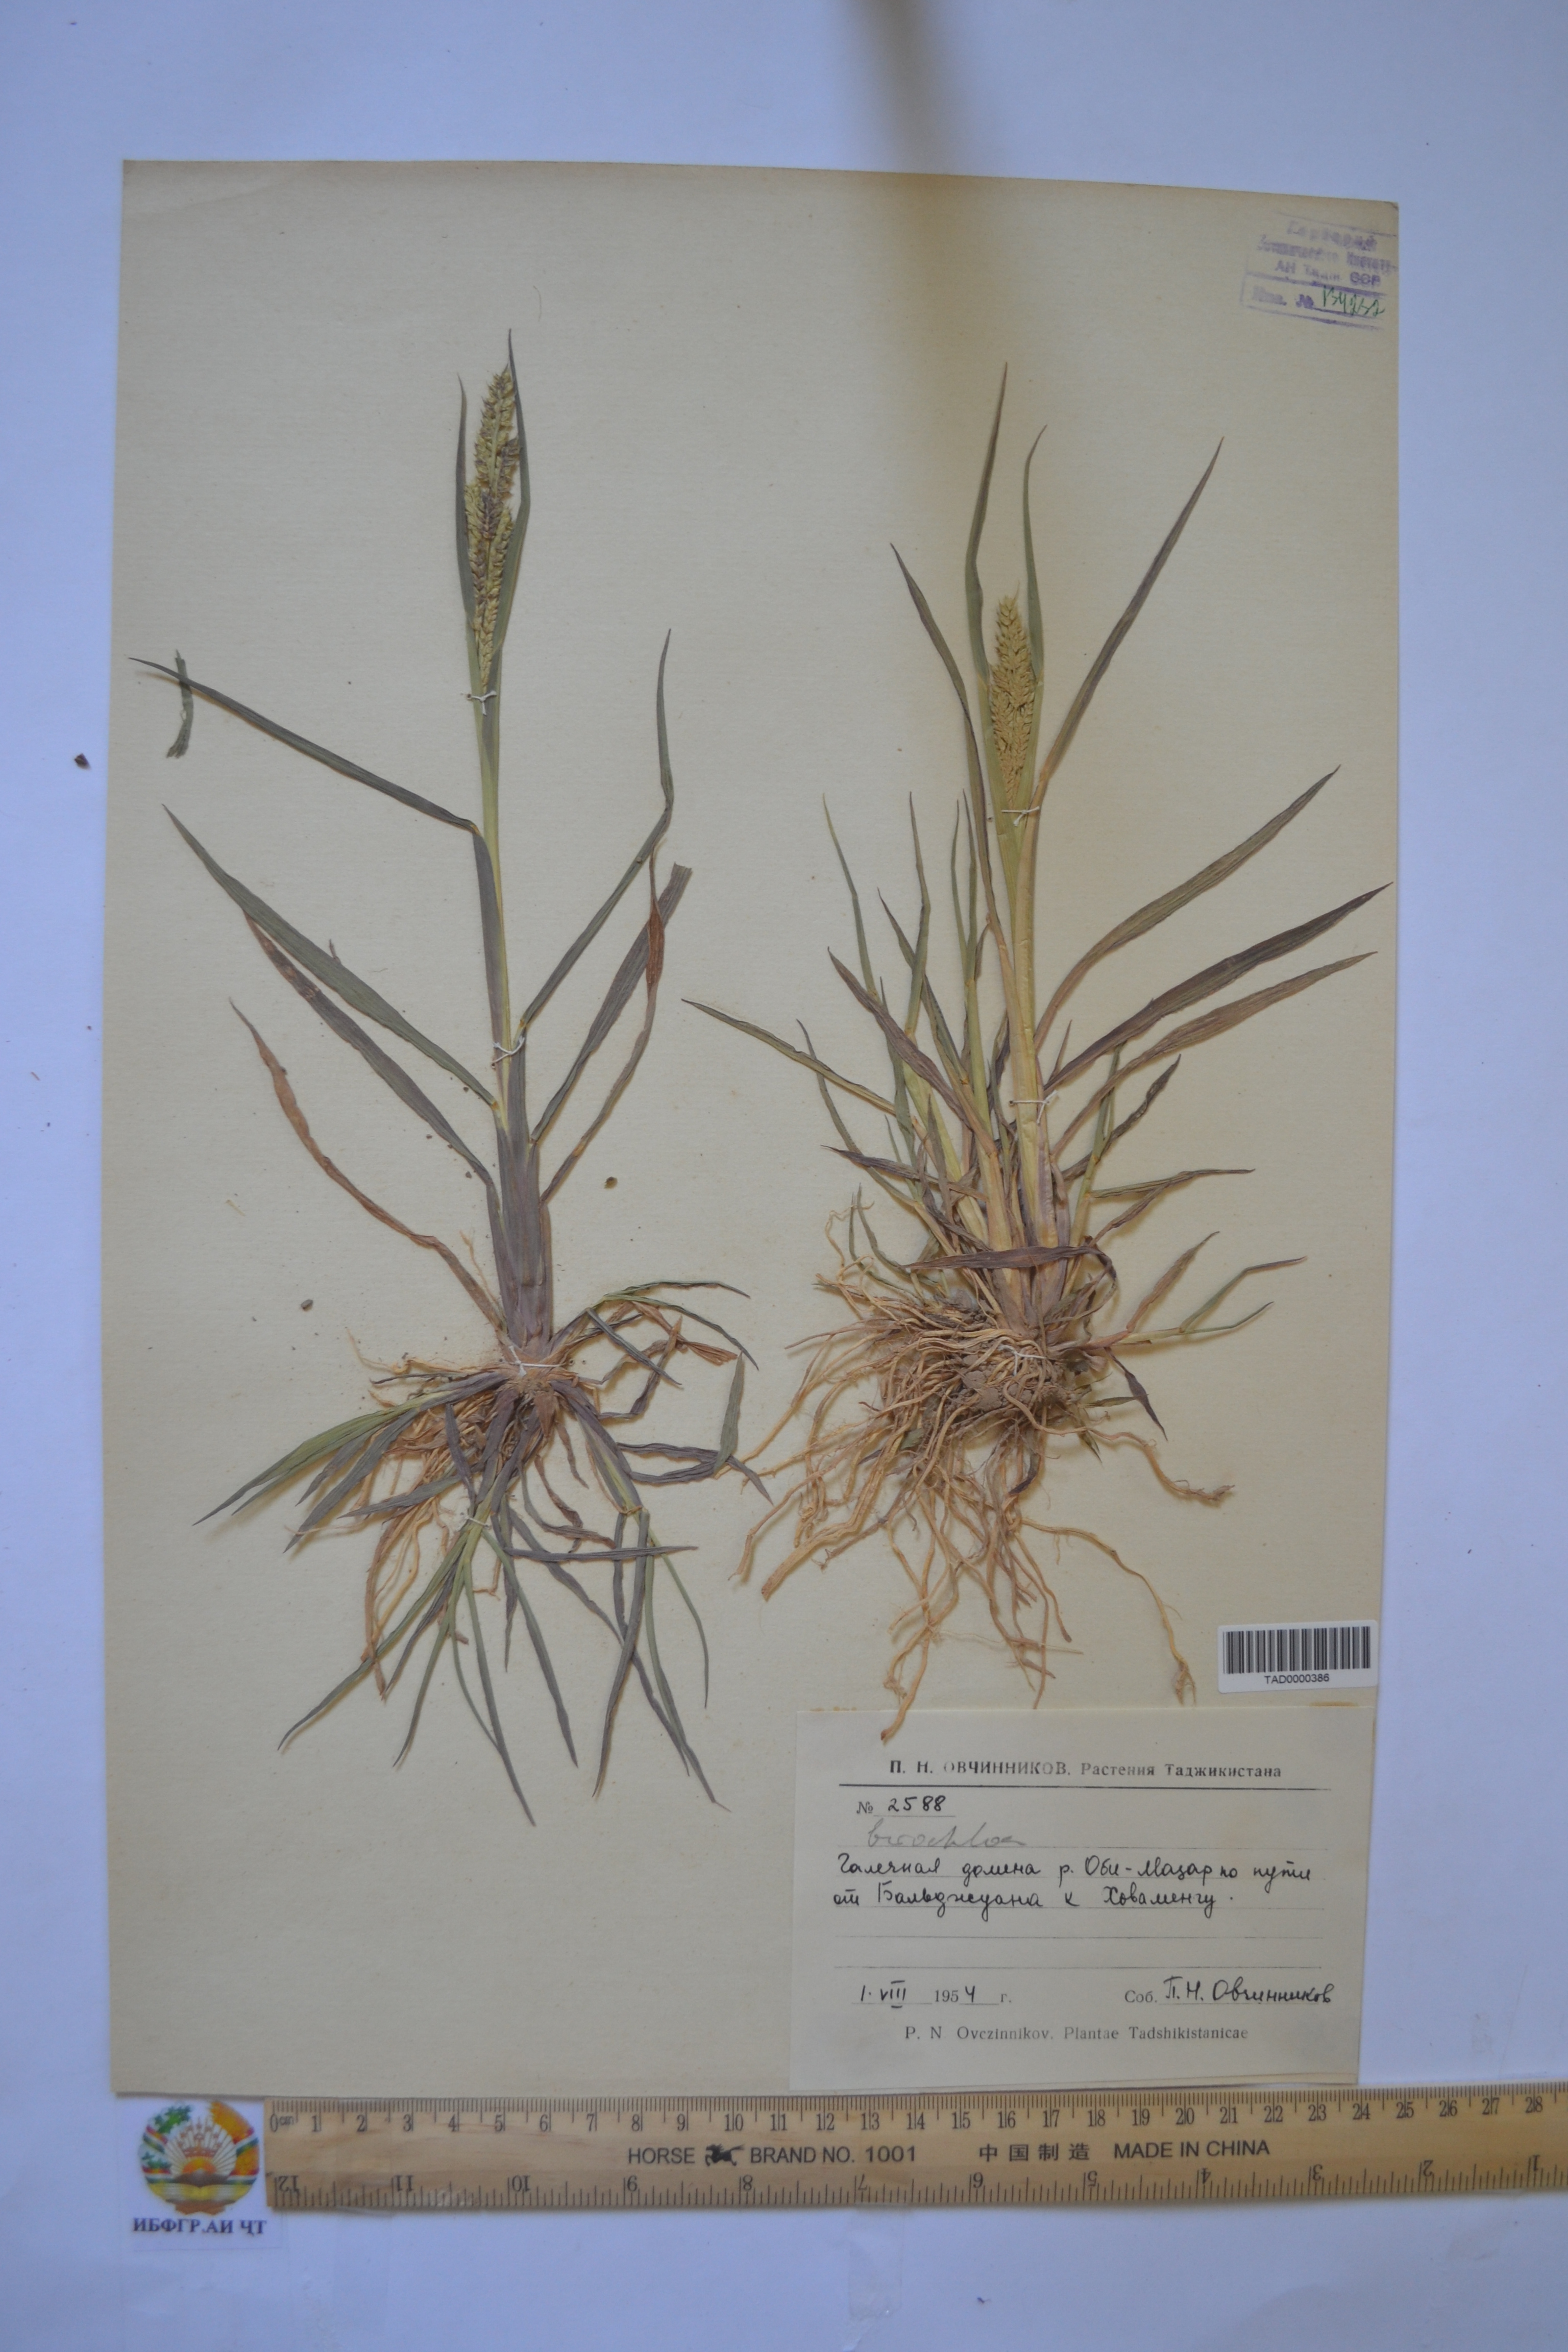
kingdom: Plantae
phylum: Tracheophyta
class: Liliopsida
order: Poales
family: Poaceae
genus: Echinochloa
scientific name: Echinochloa crus-galli
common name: Cockspur
